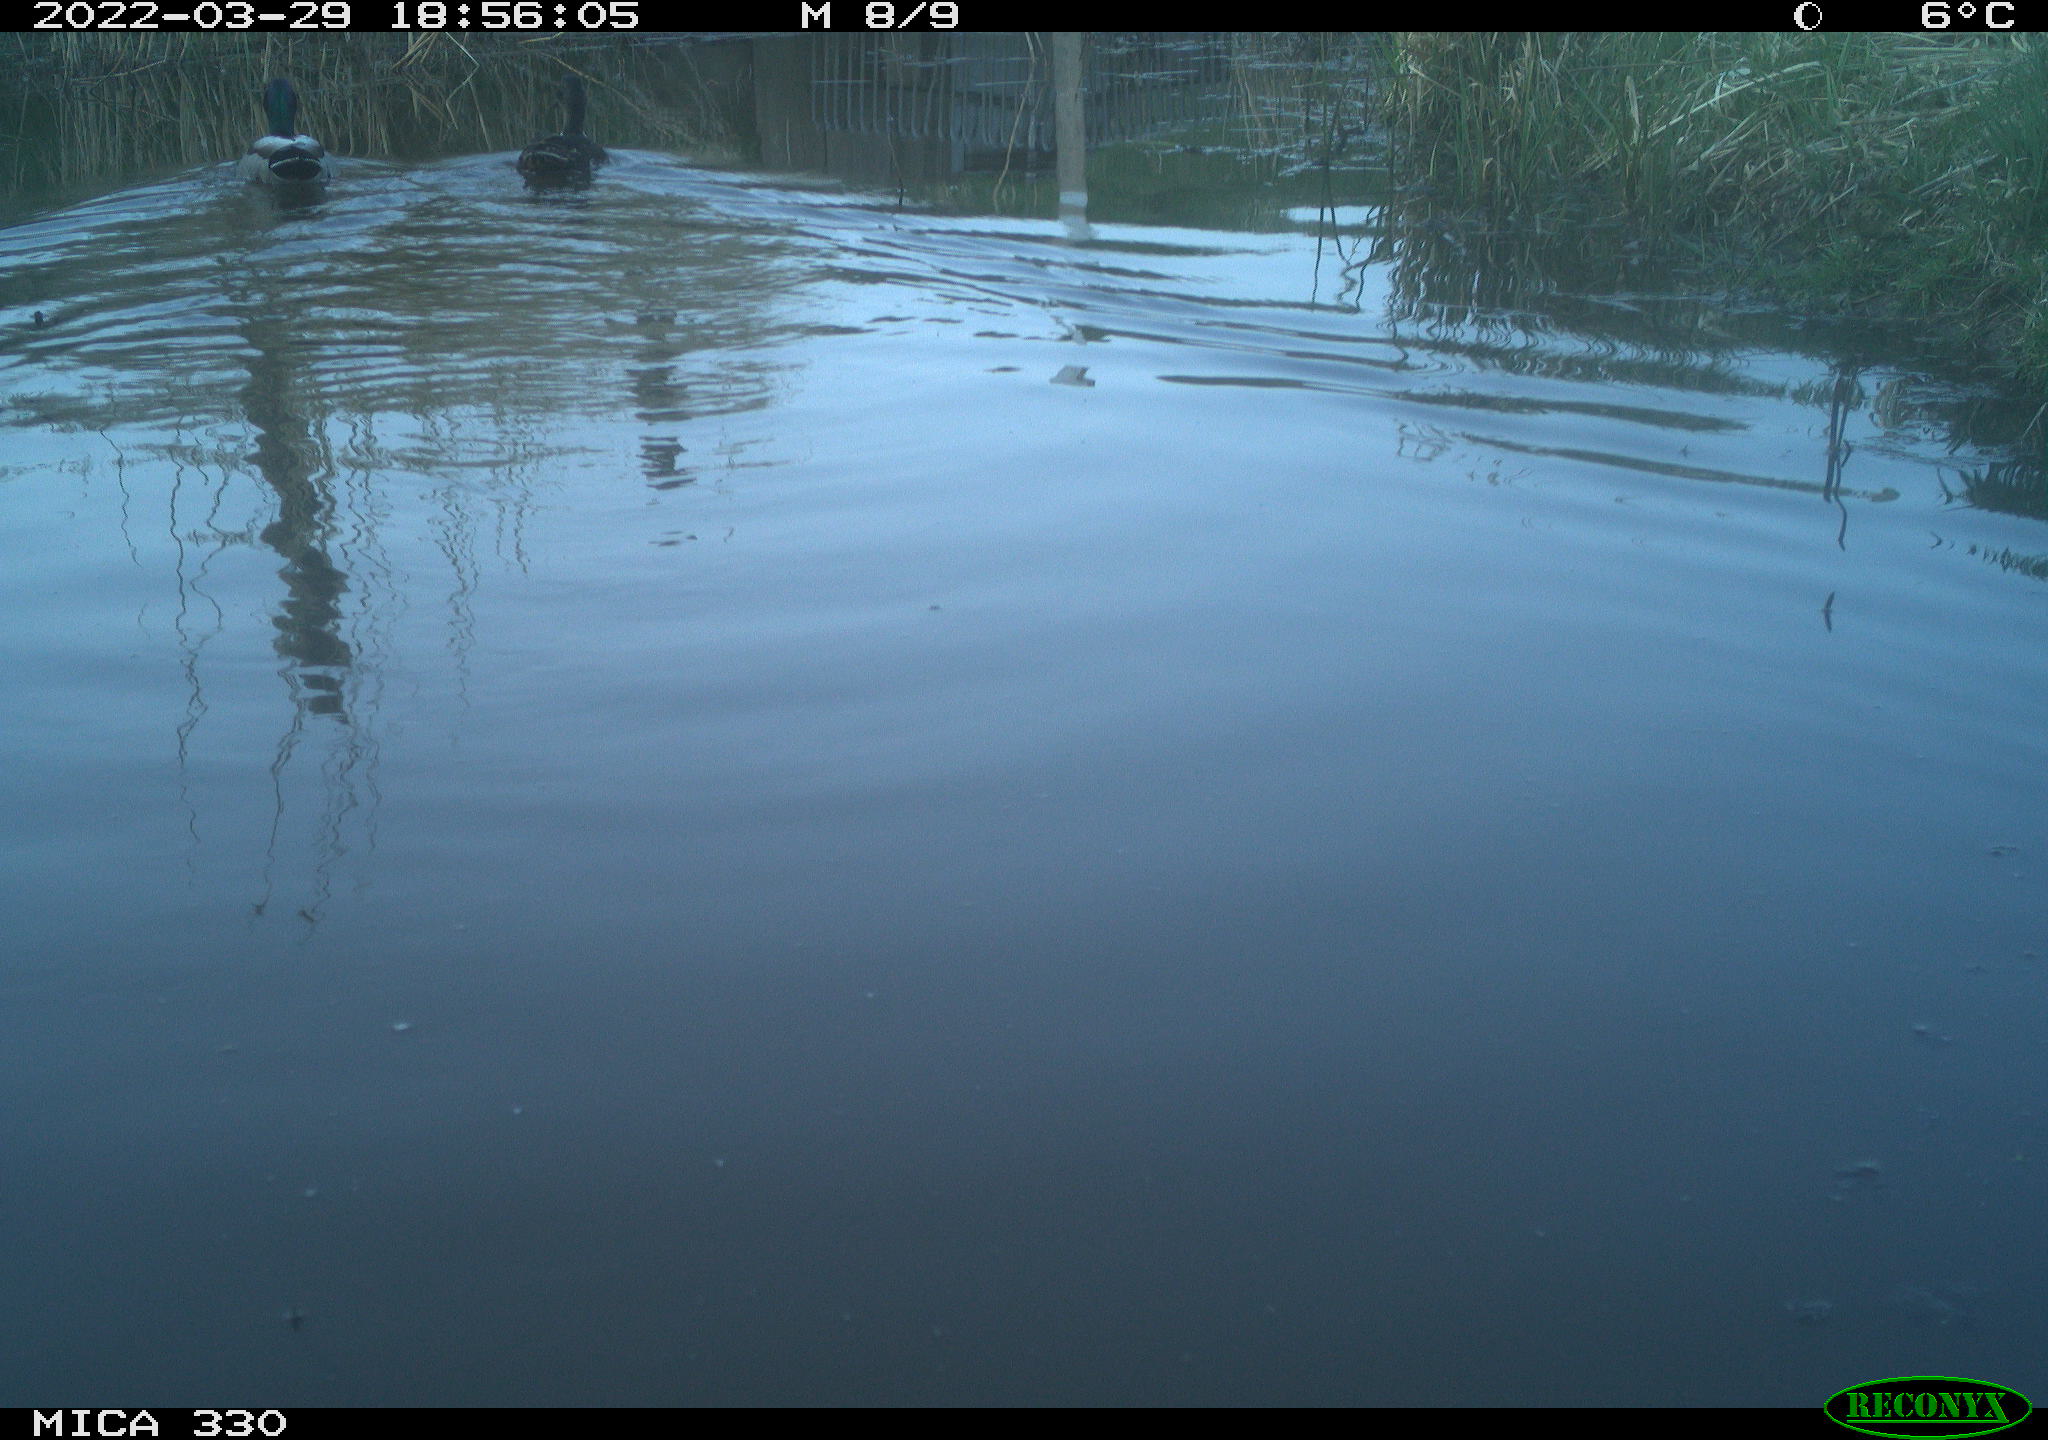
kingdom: Animalia
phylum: Chordata
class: Aves
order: Anseriformes
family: Anatidae
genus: Anas
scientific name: Anas platyrhynchos
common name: Mallard
